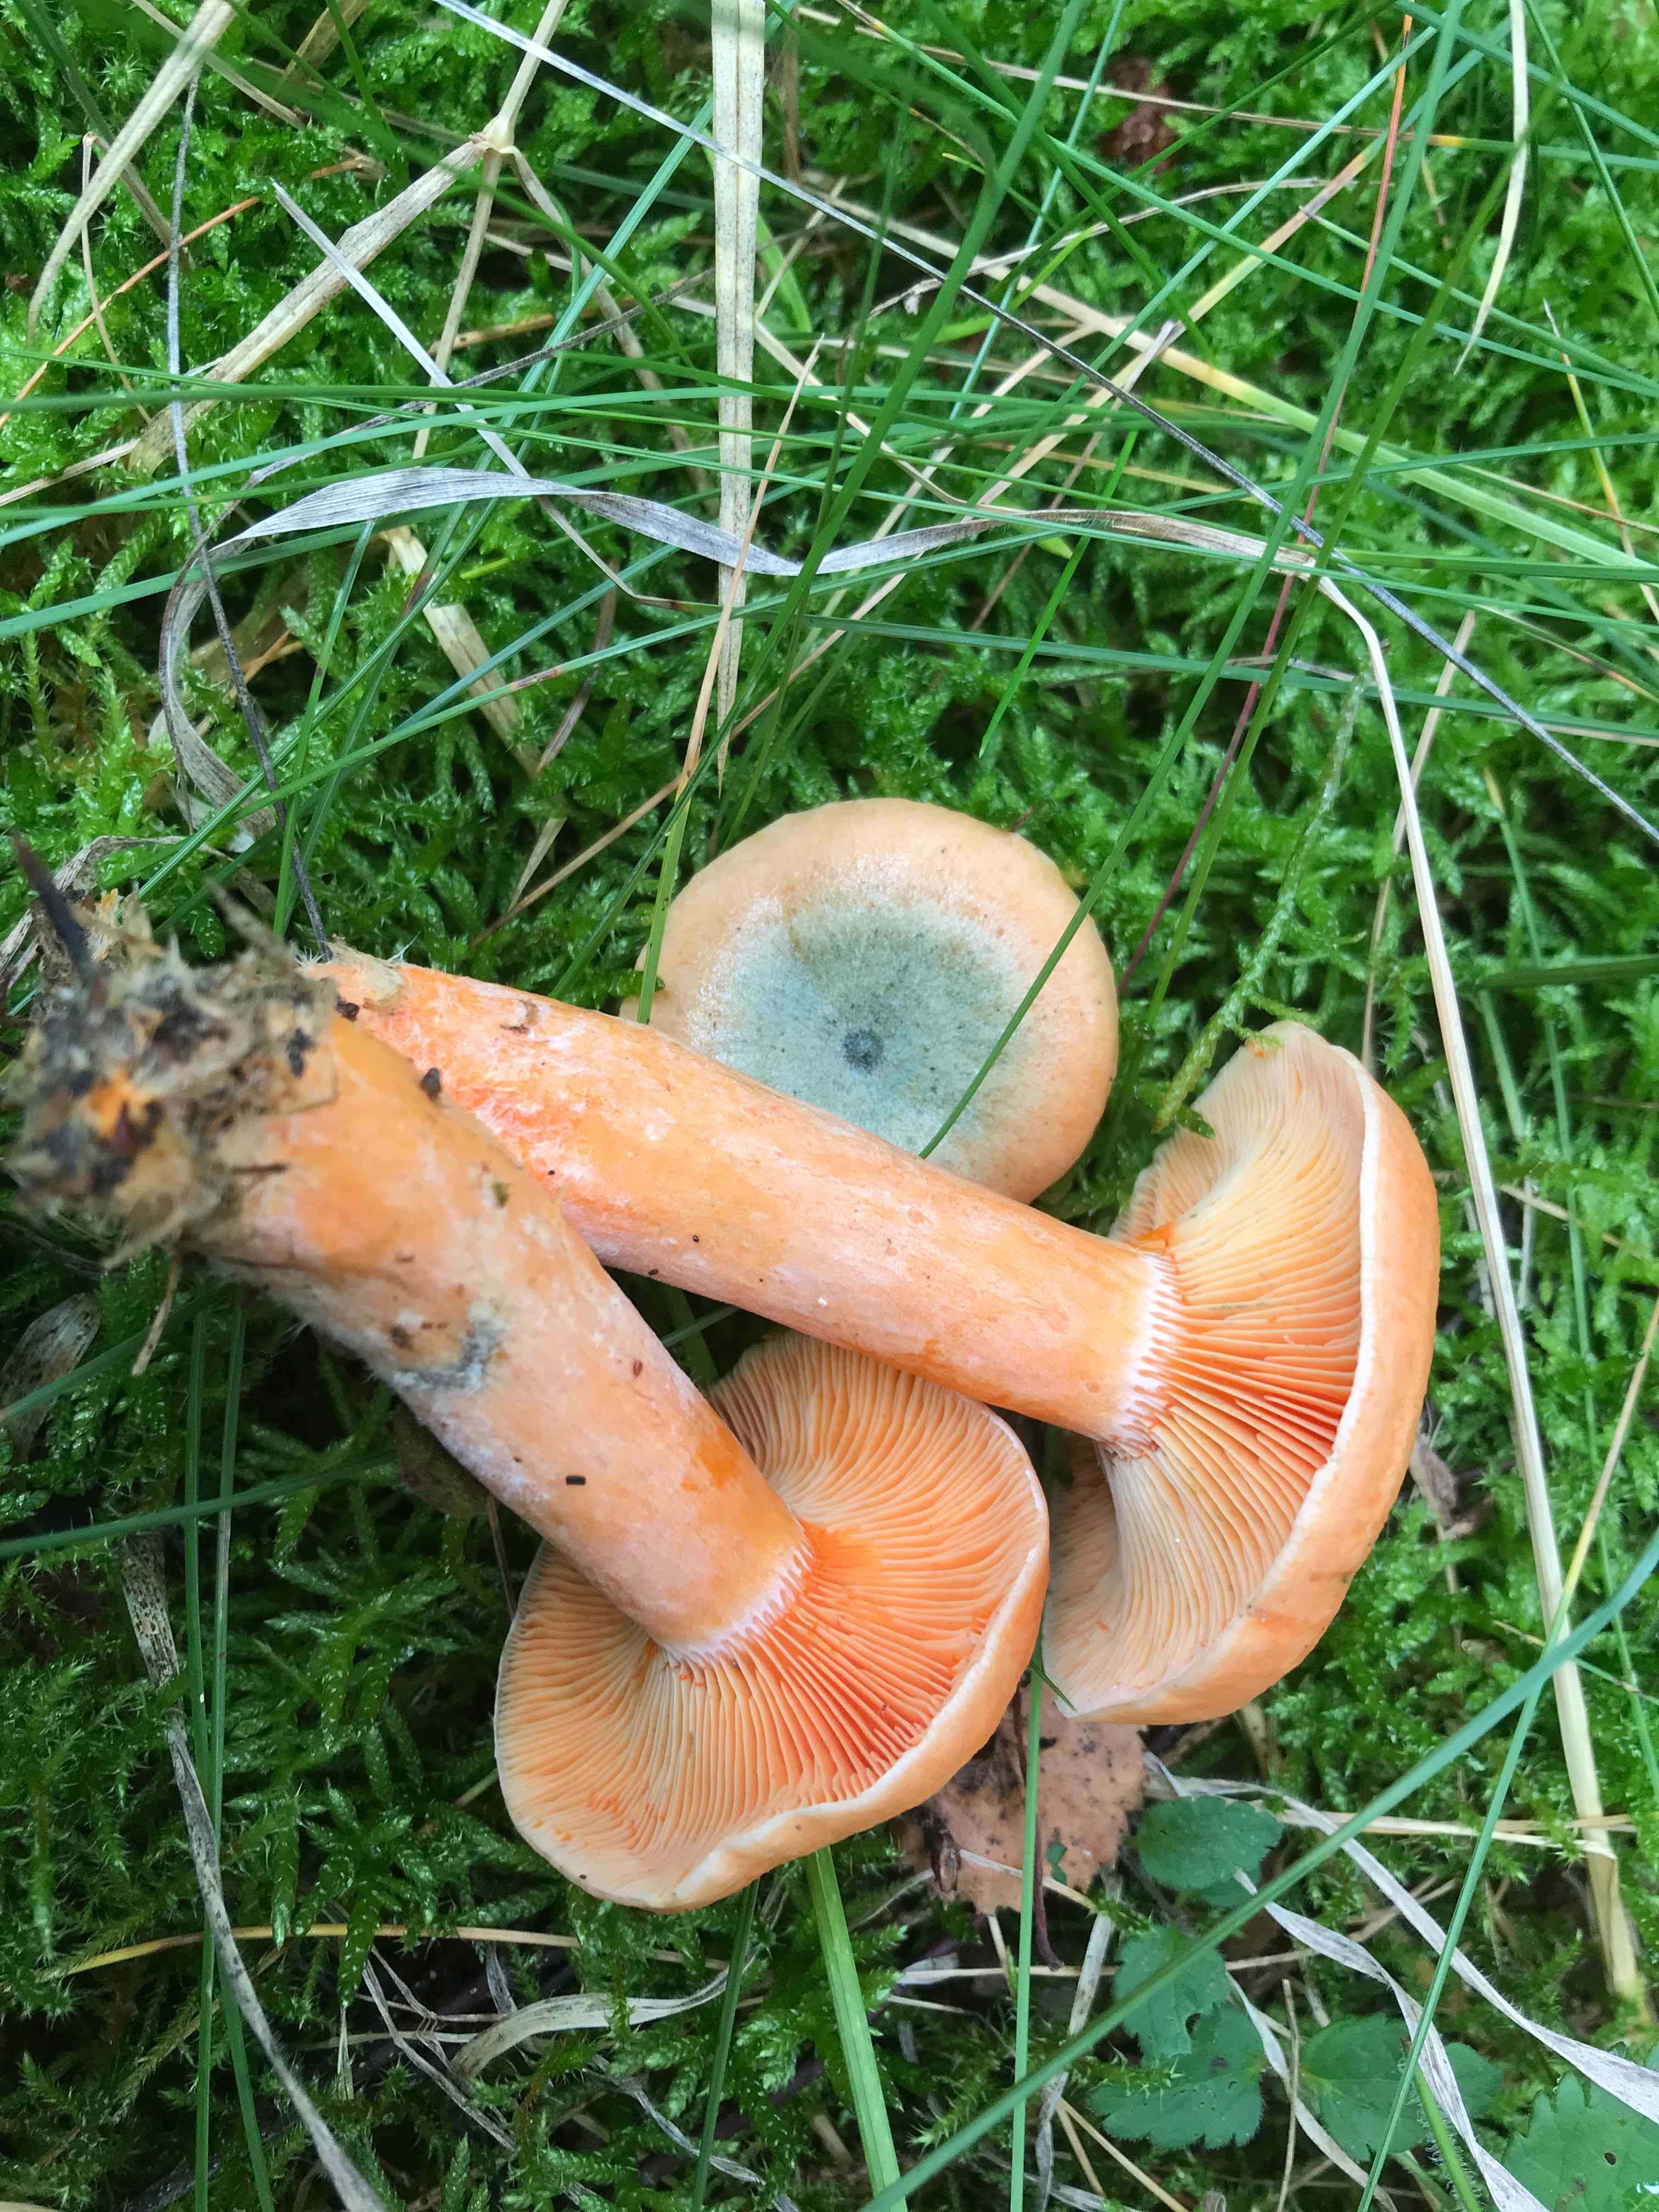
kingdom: Fungi
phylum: Basidiomycota
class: Agaricomycetes
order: Russulales
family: Russulaceae
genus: Lactarius
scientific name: Lactarius deterrimus
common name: gran-mælkehat
